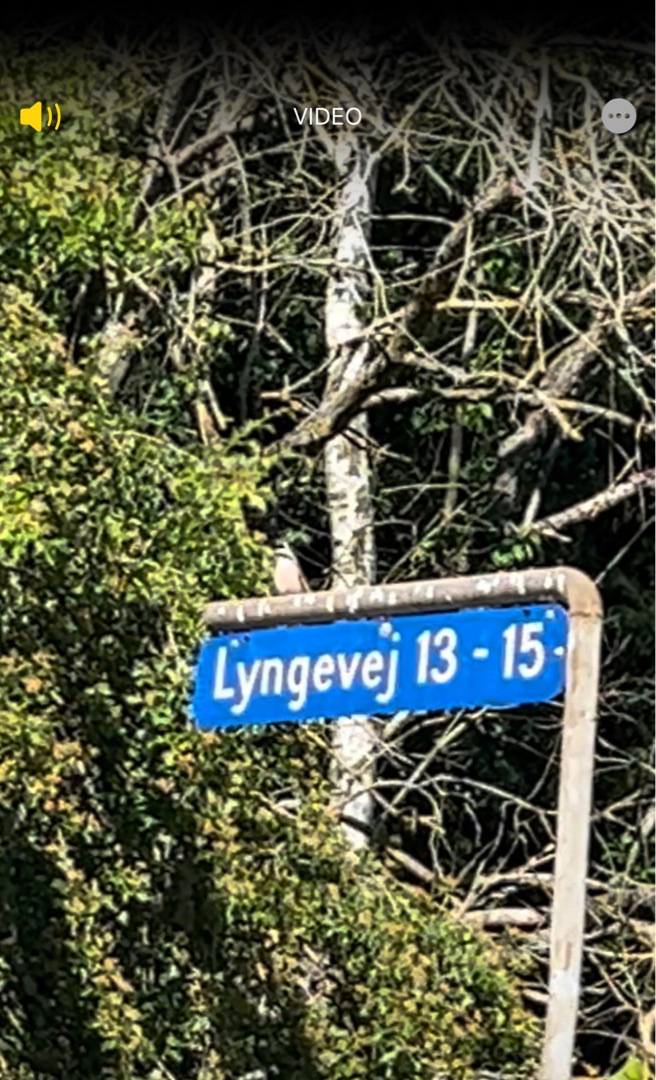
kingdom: Animalia
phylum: Chordata
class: Aves
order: Passeriformes
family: Laniidae
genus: Lanius
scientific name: Lanius collurio
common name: Rødrygget tornskade
